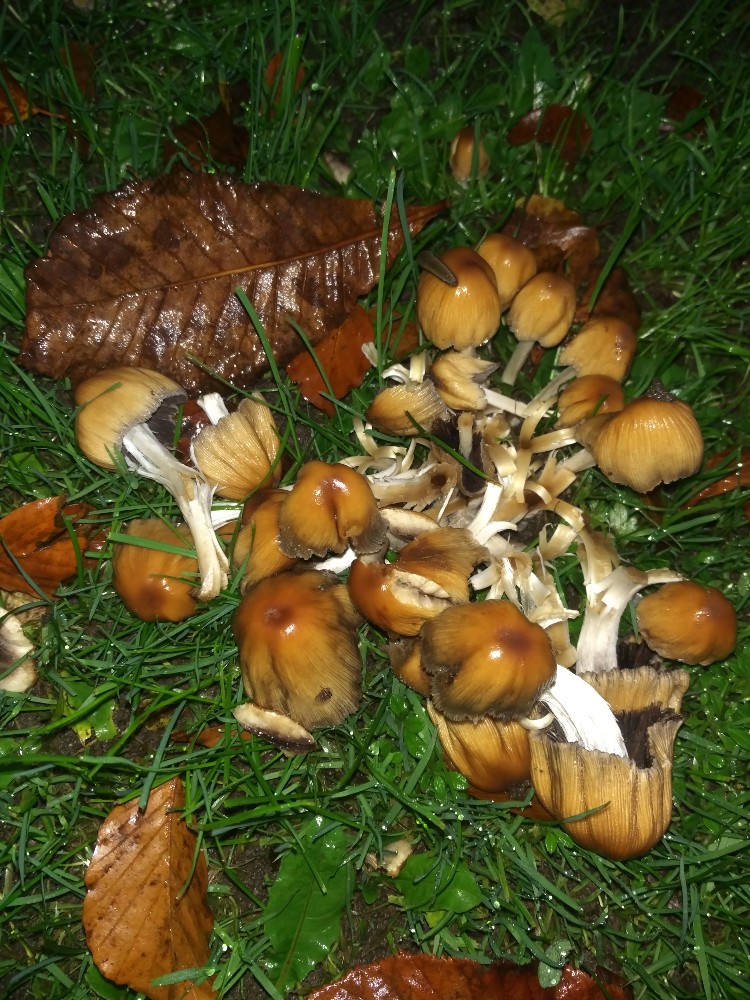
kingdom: Fungi
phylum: Basidiomycota
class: Agaricomycetes
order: Agaricales
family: Psathyrellaceae
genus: Coprinellus
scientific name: Coprinellus micaceus
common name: glimmer-blækhat
